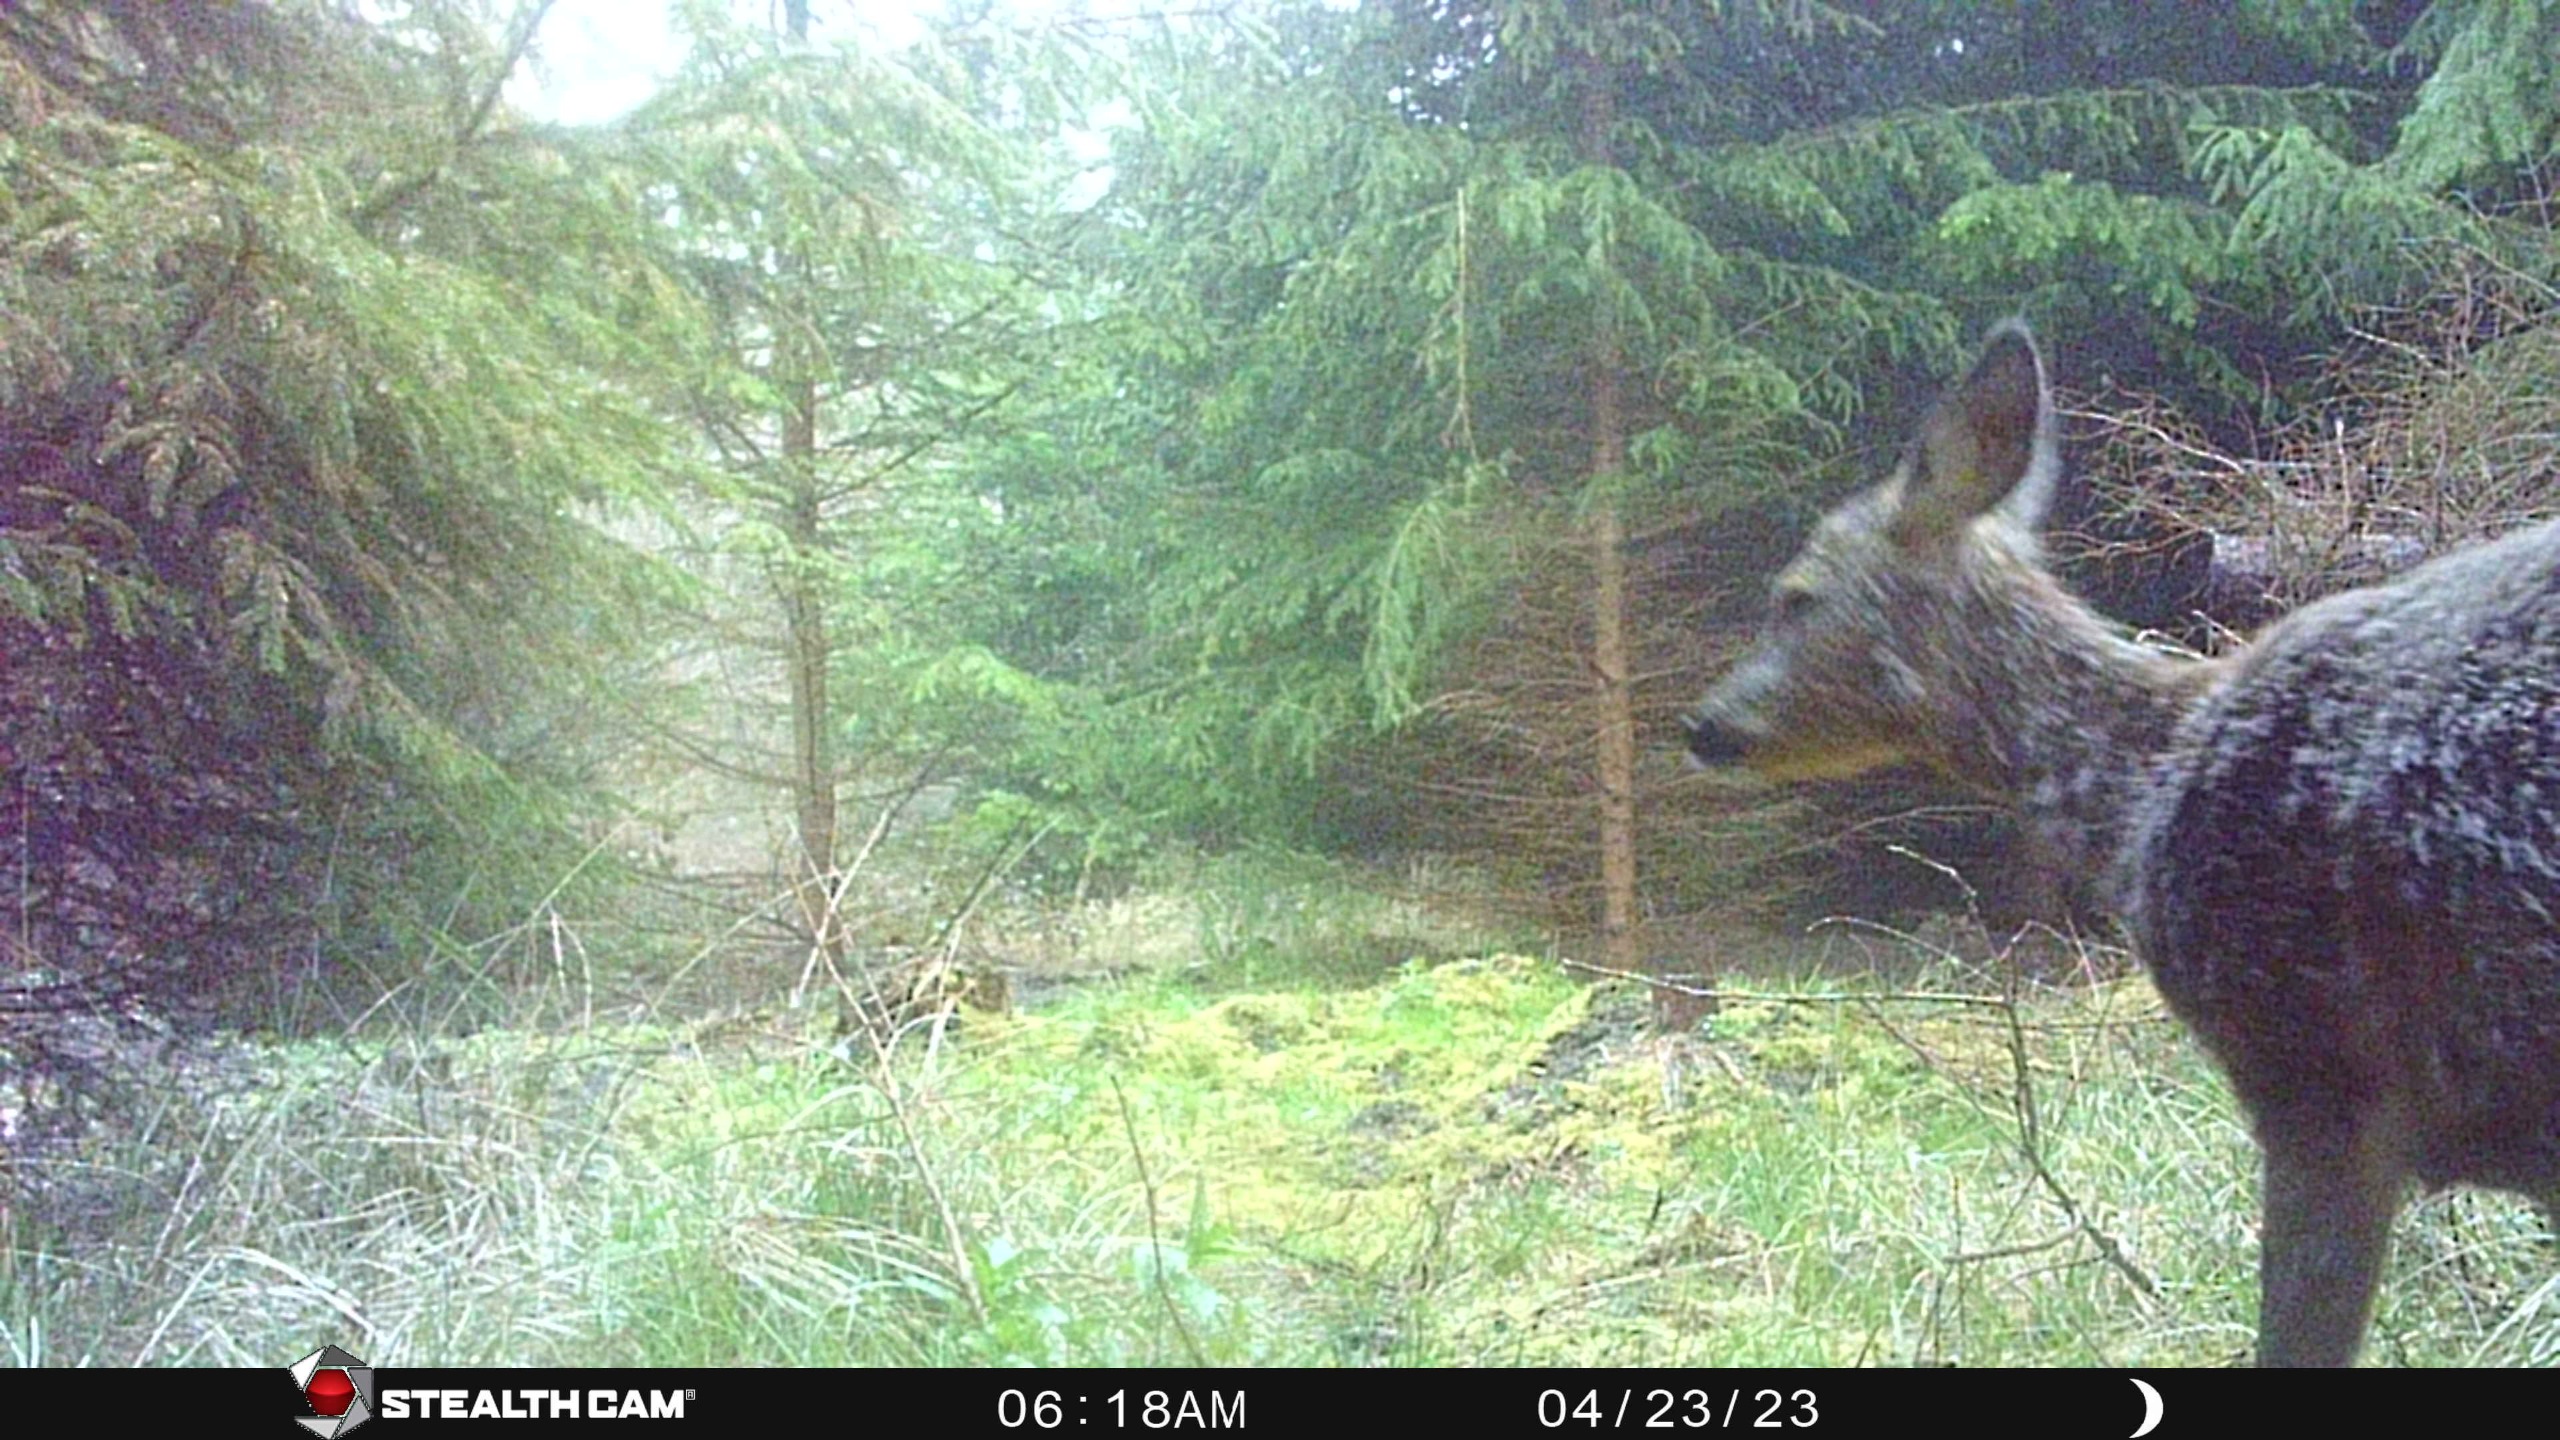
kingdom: Animalia
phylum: Chordata
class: Mammalia
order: Artiodactyla
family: Cervidae
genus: Capreolus
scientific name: Capreolus capreolus
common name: Rådyr
